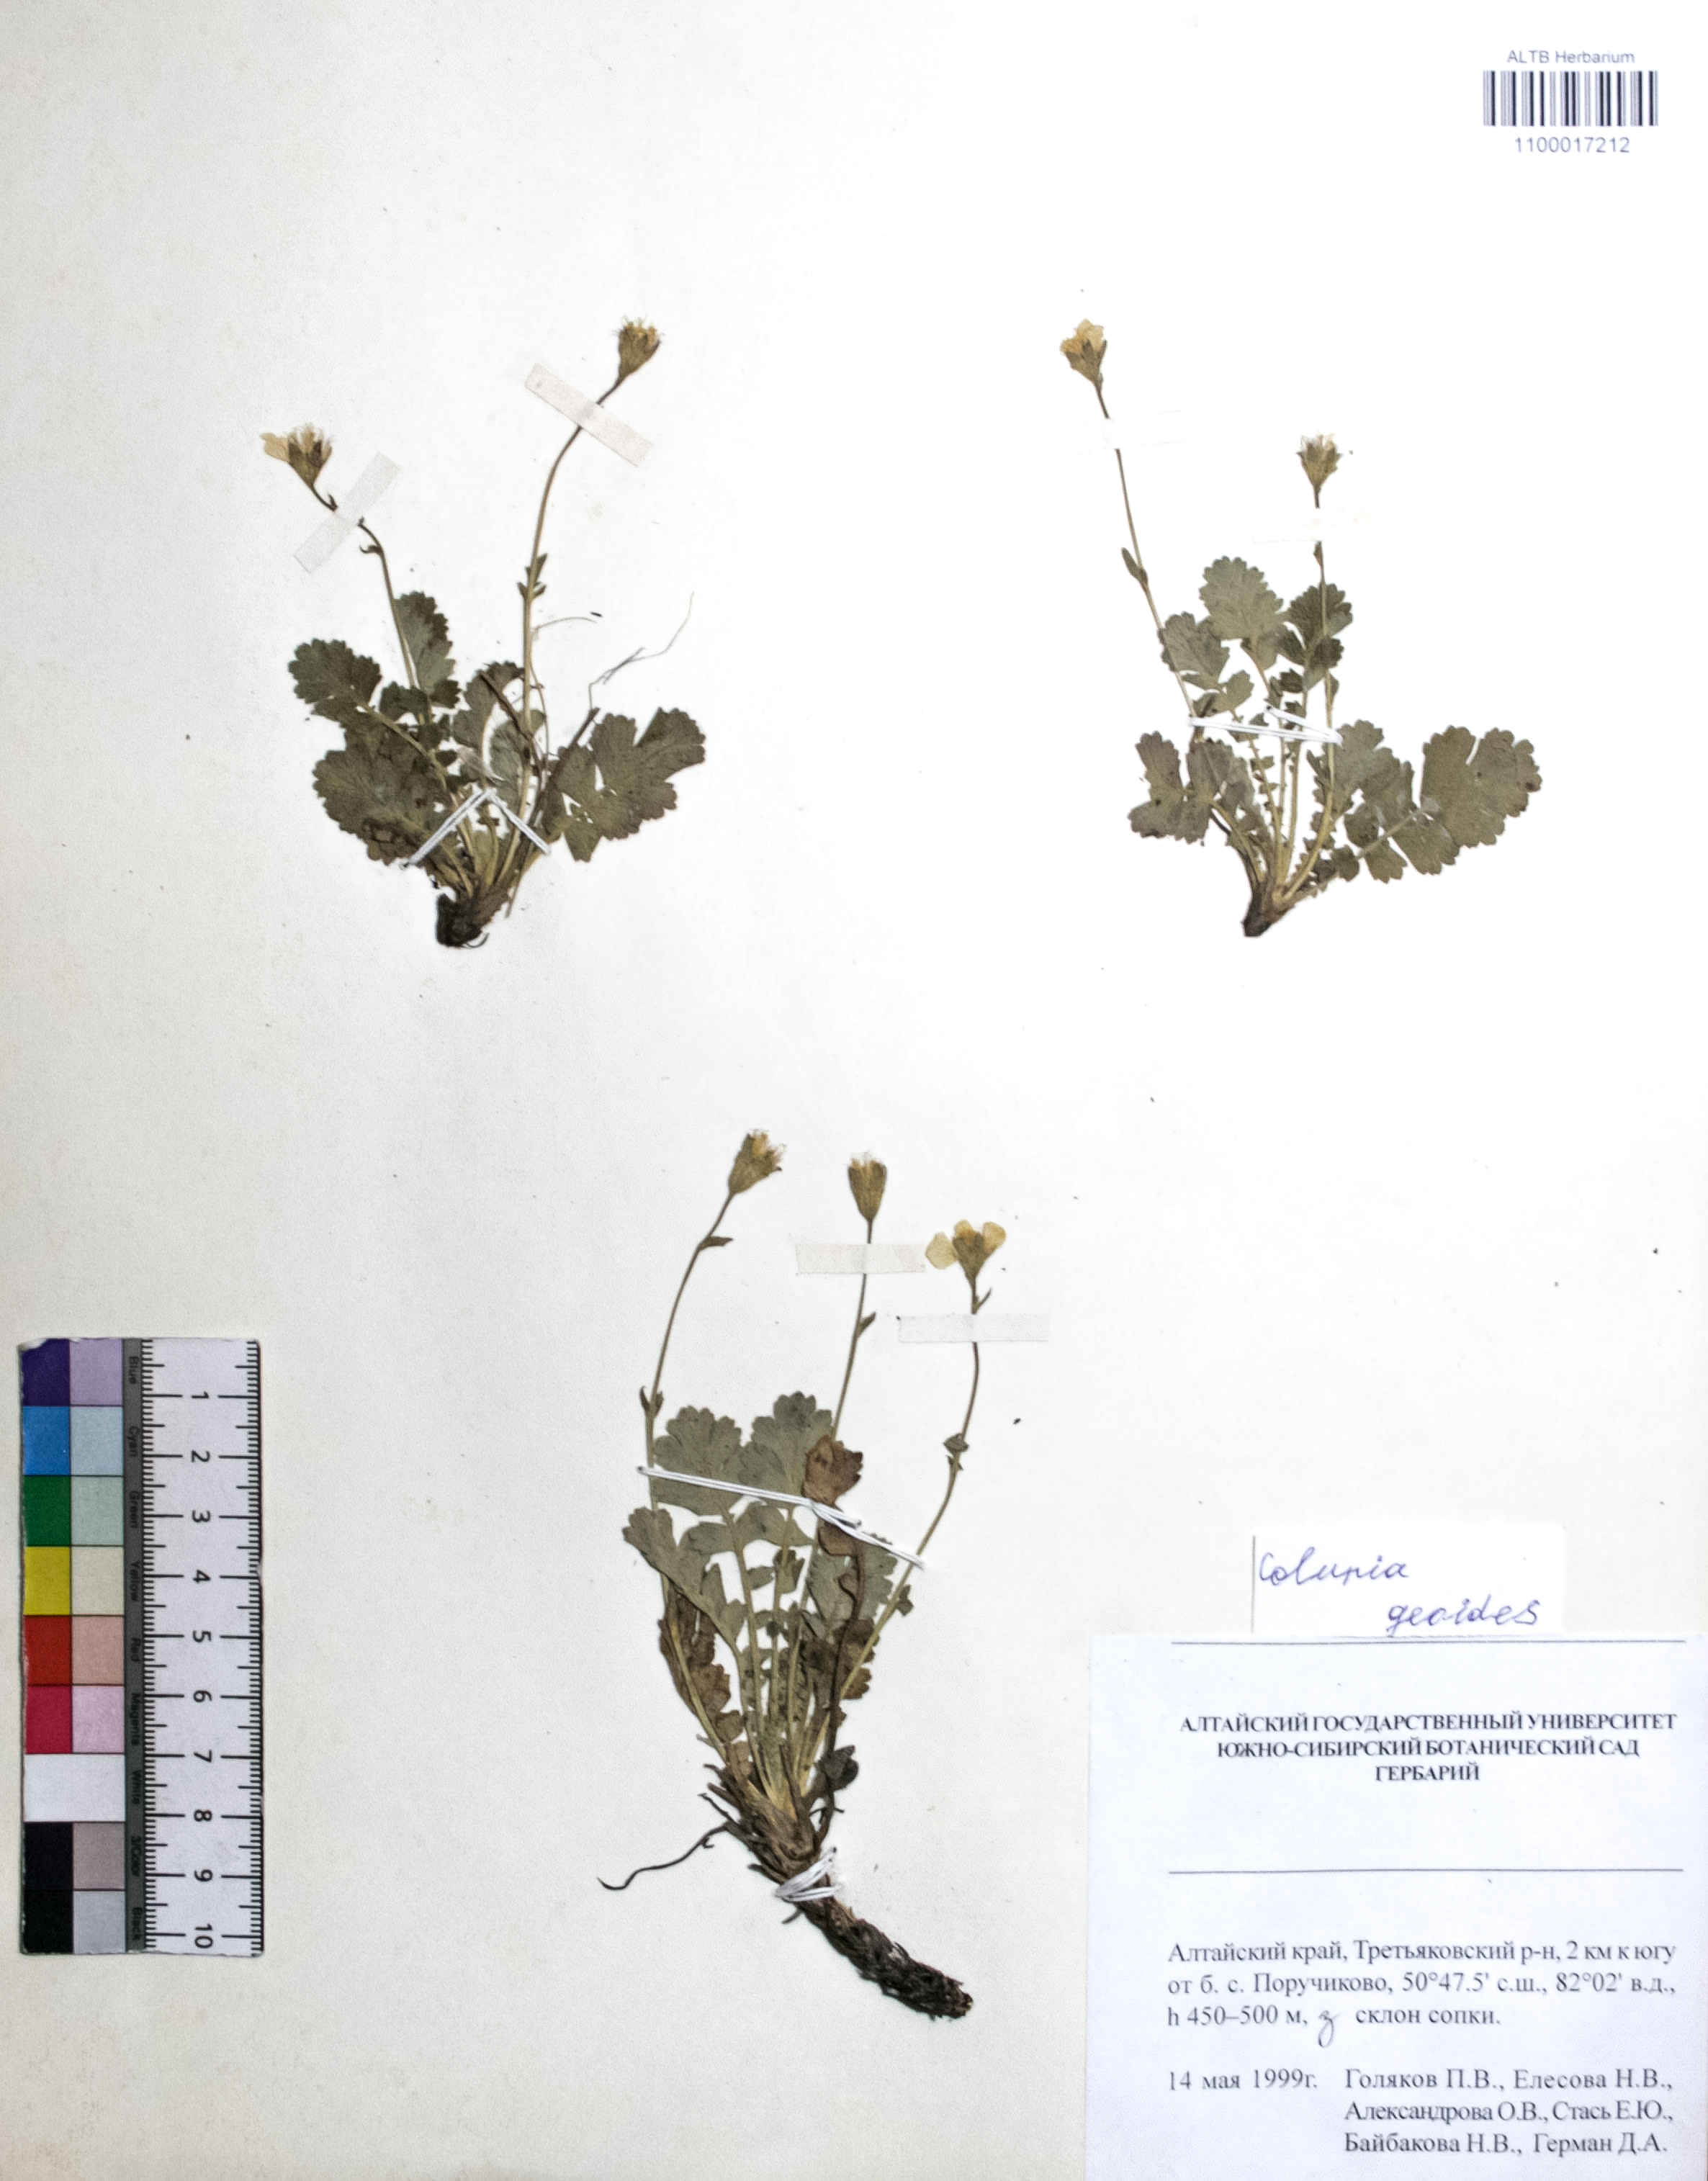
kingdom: Plantae
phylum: Tracheophyta
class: Magnoliopsida
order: Rosales
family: Rosaceae
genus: Geum
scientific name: Geum geoides
